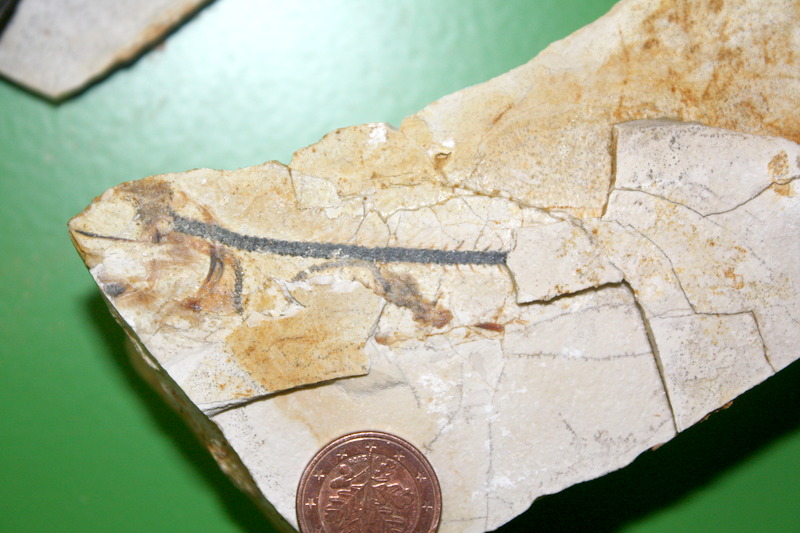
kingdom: Animalia
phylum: Chordata
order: Salmoniformes
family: Orthogonikleithridae
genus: Orthogonikleithrus
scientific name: Orthogonikleithrus hoelli
